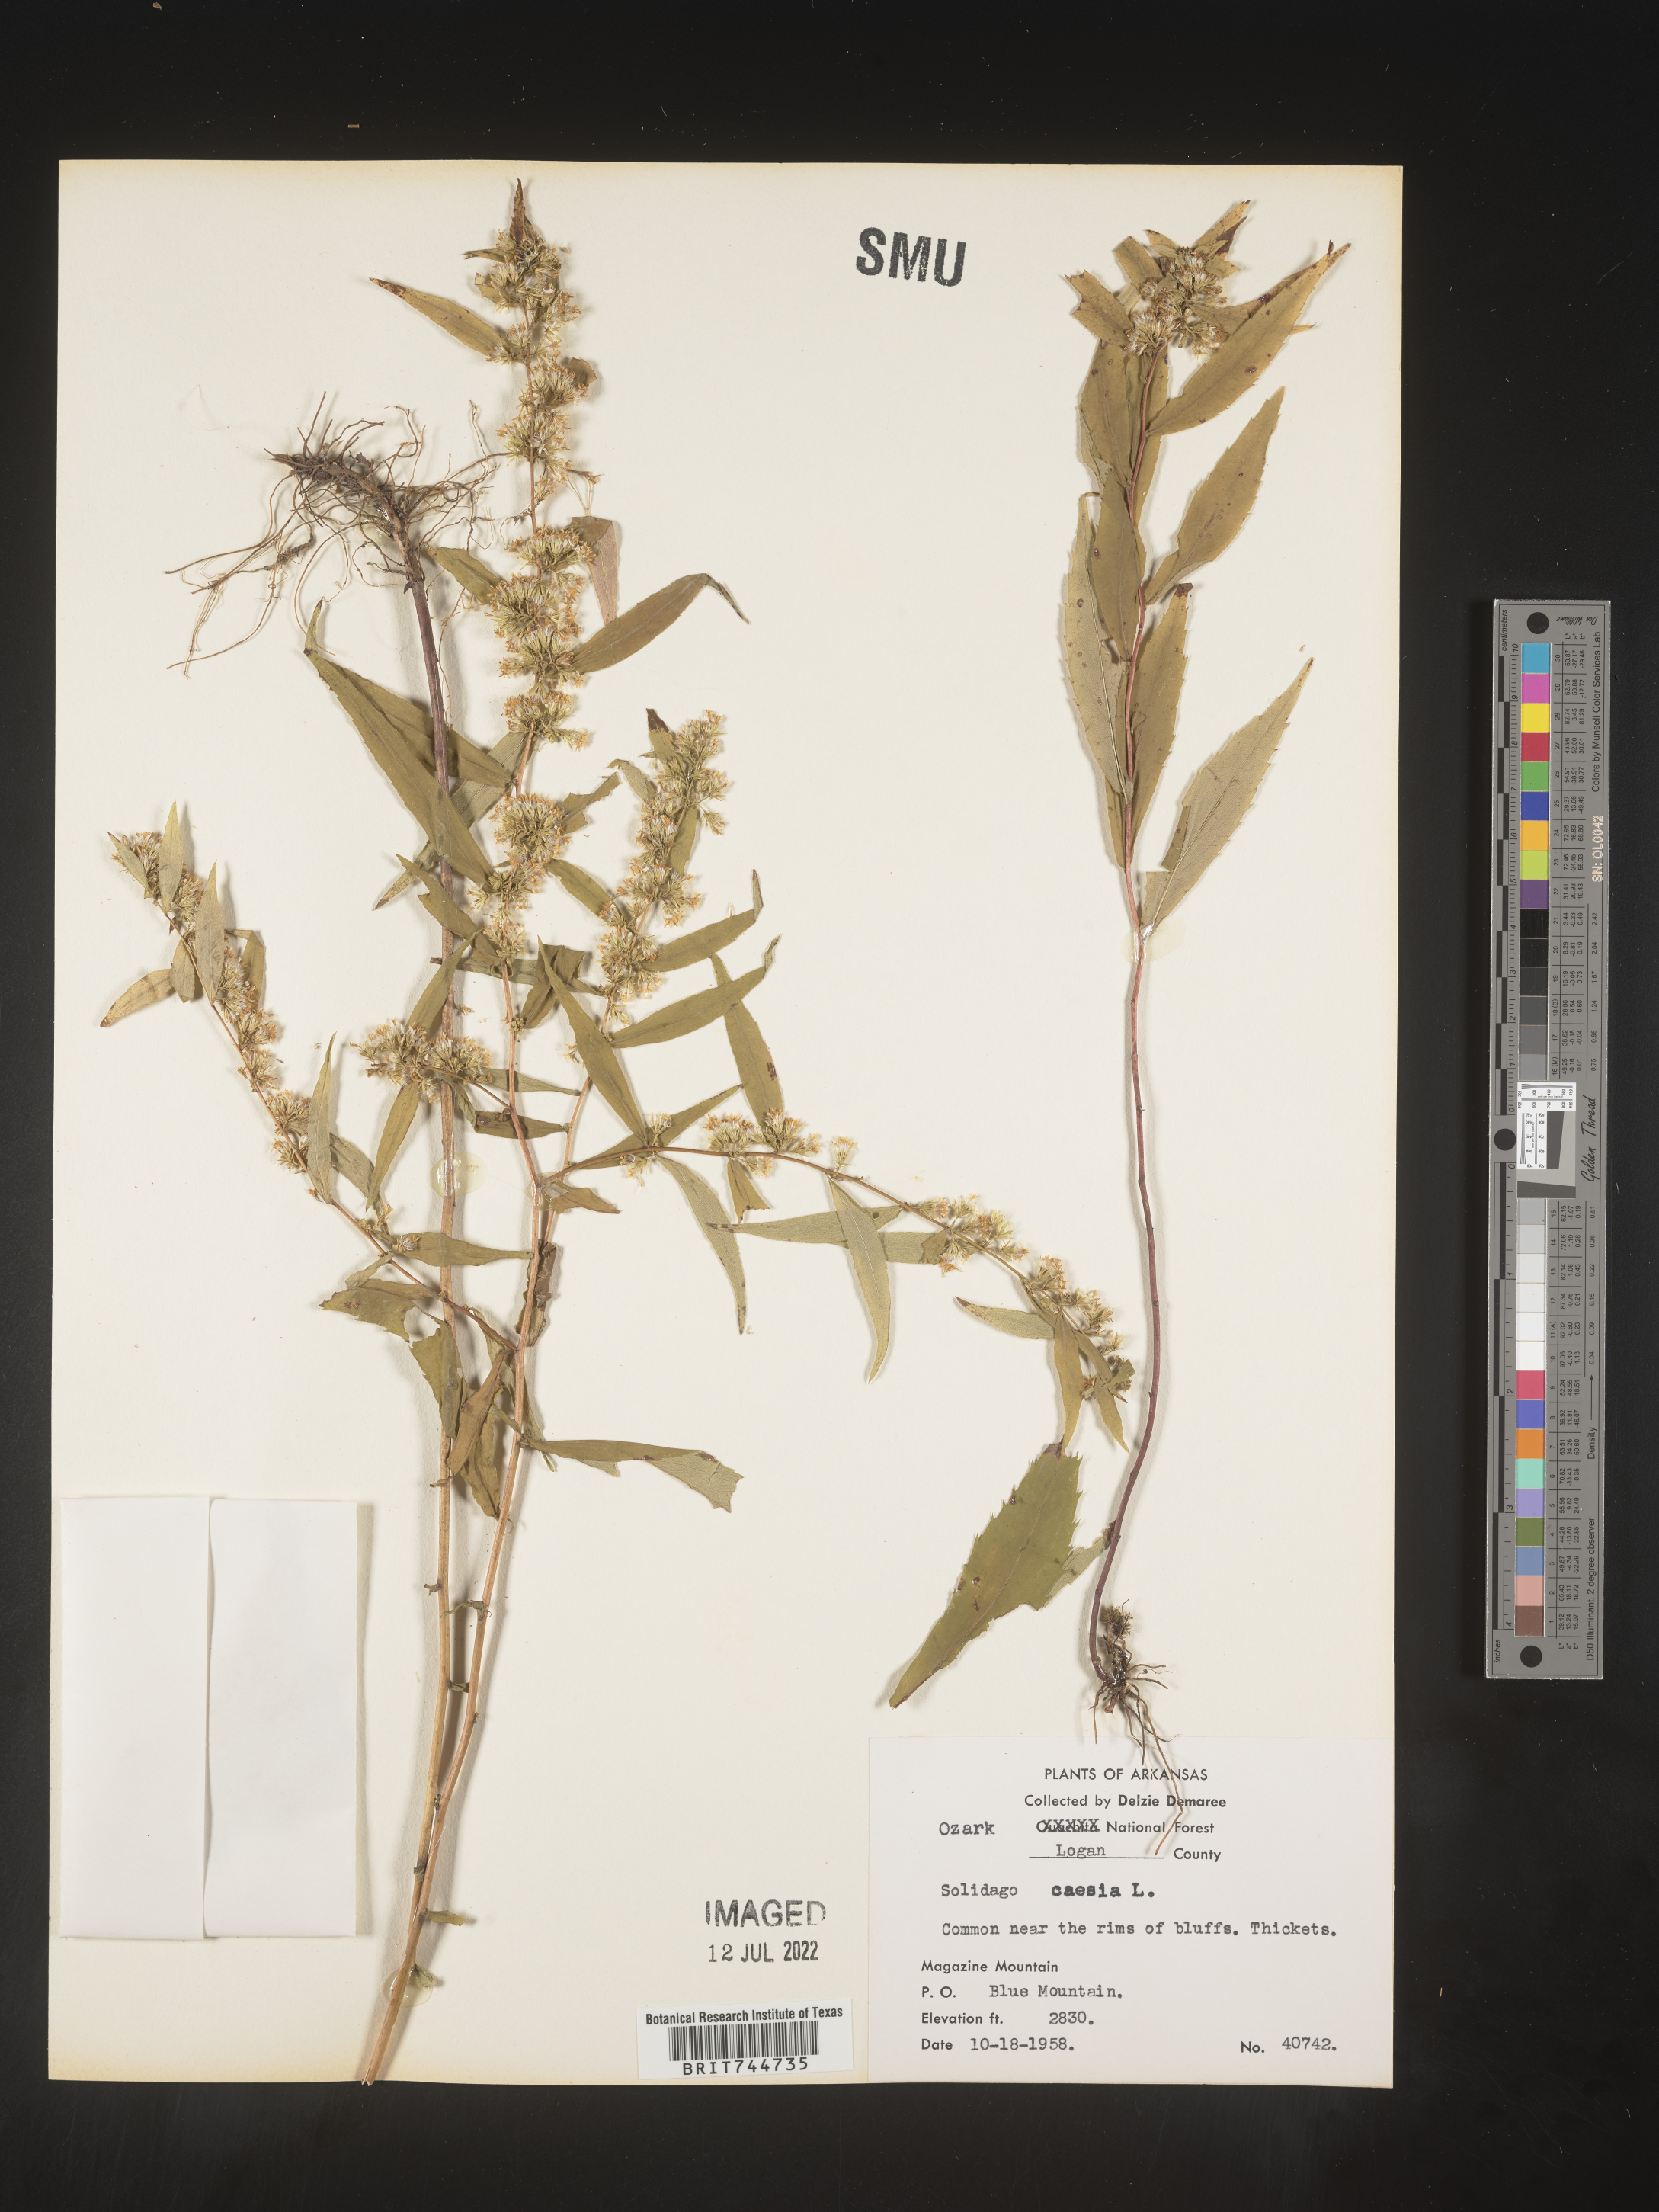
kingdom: Plantae
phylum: Tracheophyta
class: Magnoliopsida
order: Asterales
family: Asteraceae
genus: Solidago
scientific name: Solidago caesia
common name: Woodland goldenrod
